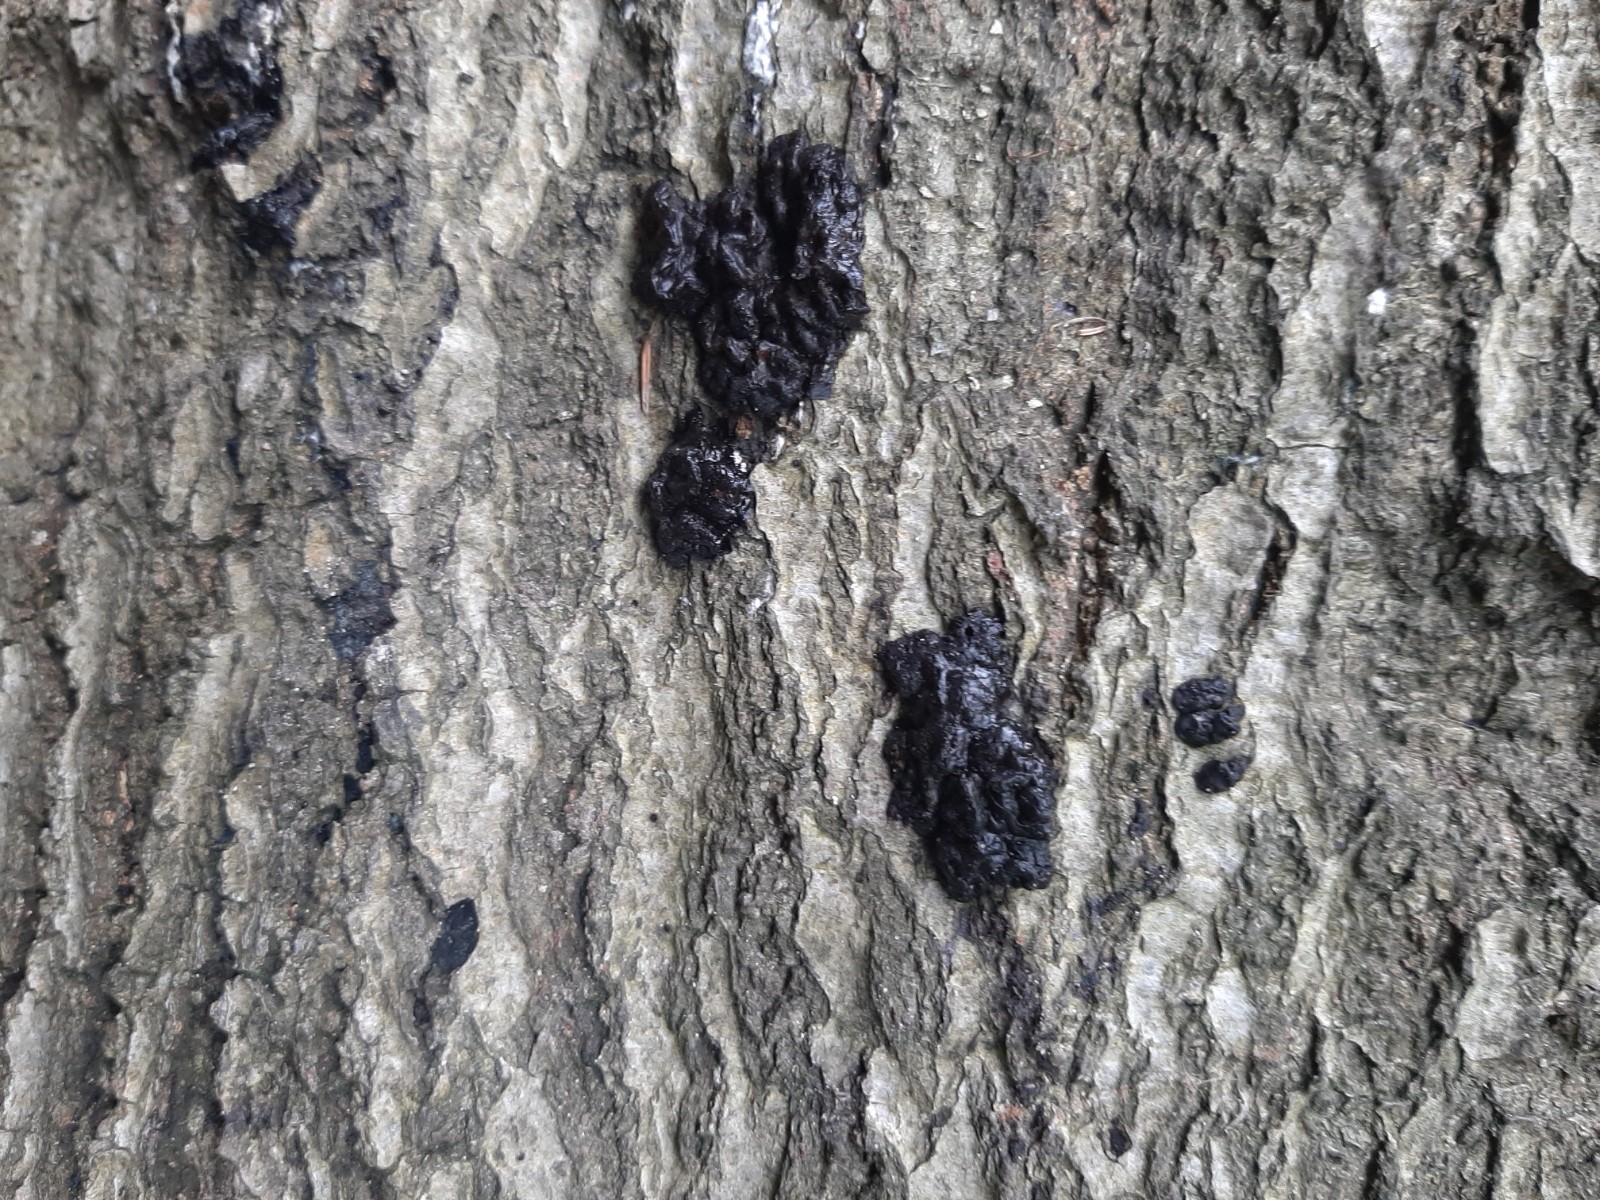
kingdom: Fungi
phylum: Basidiomycota
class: Agaricomycetes
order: Auriculariales
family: Auriculariaceae
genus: Exidia
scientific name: Exidia nigricans
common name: almindelig bævretop
